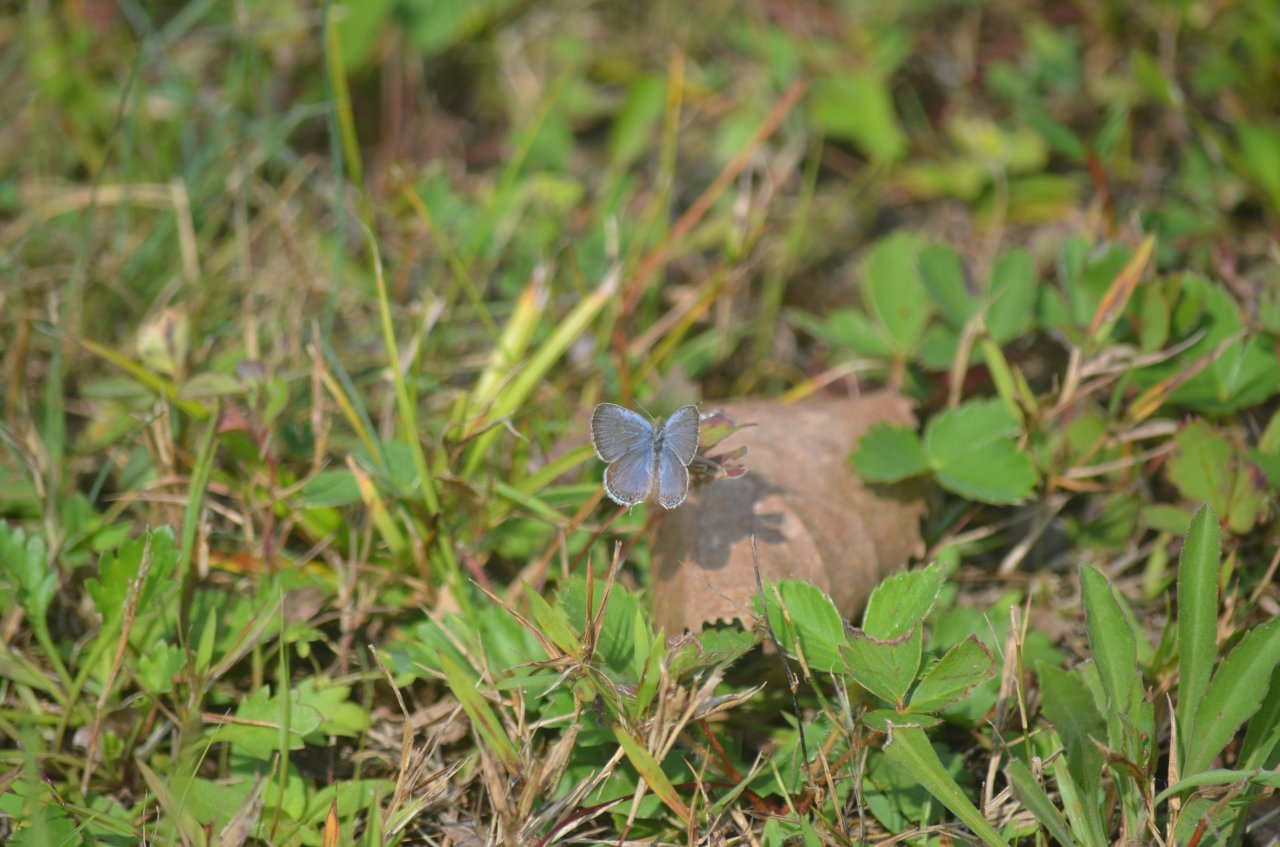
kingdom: Animalia
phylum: Arthropoda
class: Insecta
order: Lepidoptera
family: Lycaenidae
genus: Elkalyce
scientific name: Elkalyce comyntas
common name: Eastern Tailed-Blue
